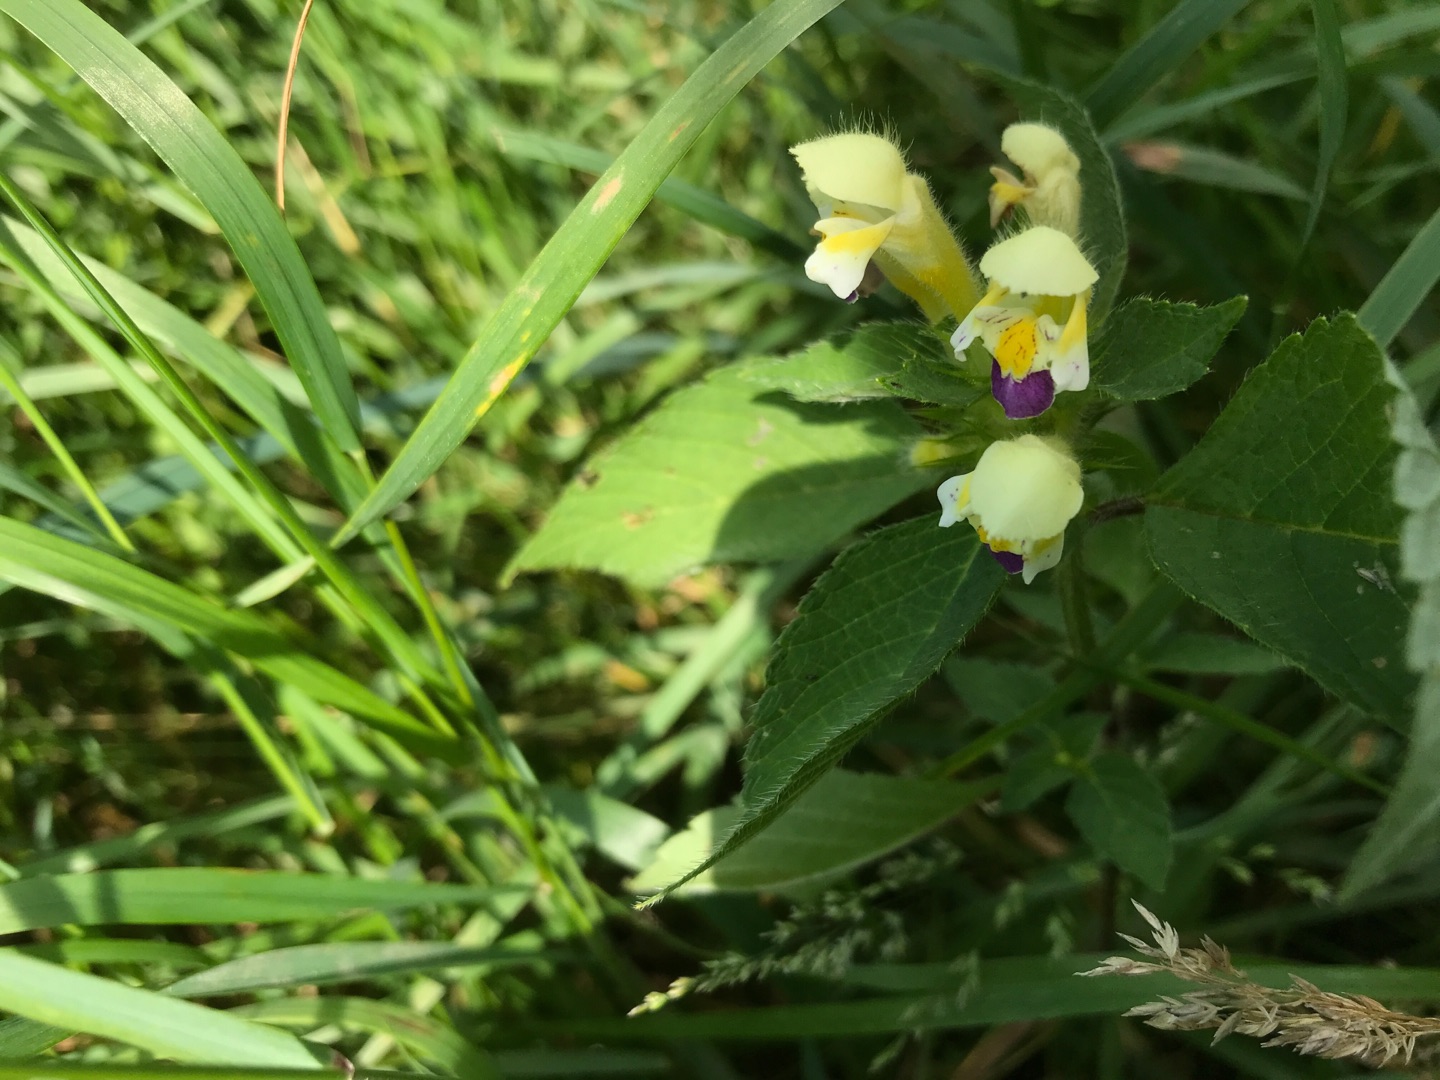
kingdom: Plantae
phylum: Tracheophyta
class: Magnoliopsida
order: Lamiales
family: Lamiaceae
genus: Galeopsis
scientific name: Galeopsis speciosa
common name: Hamp-hanekro
